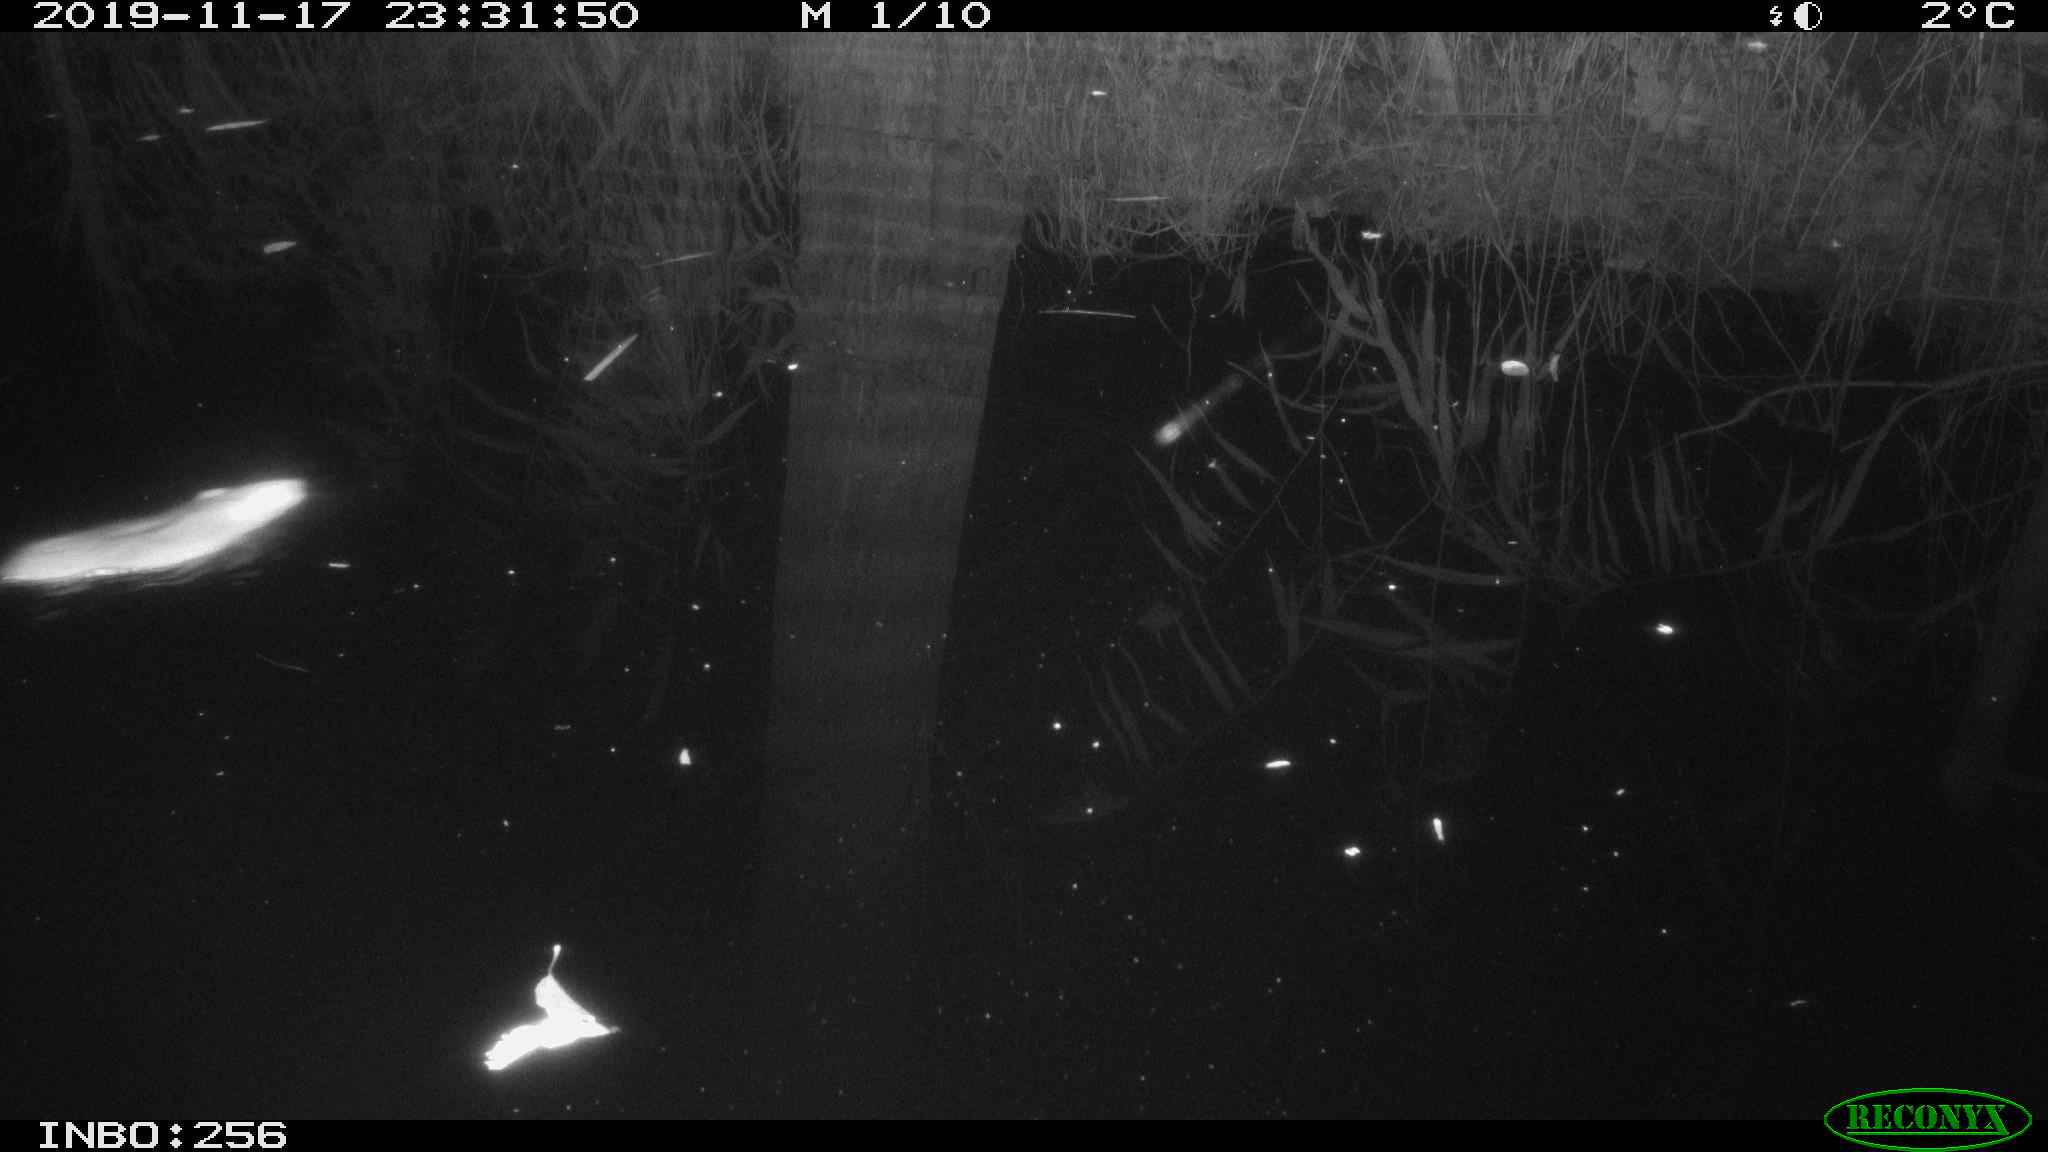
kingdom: Animalia
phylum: Chordata
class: Mammalia
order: Rodentia
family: Muridae
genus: Rattus
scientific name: Rattus norvegicus
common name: Brown rat
